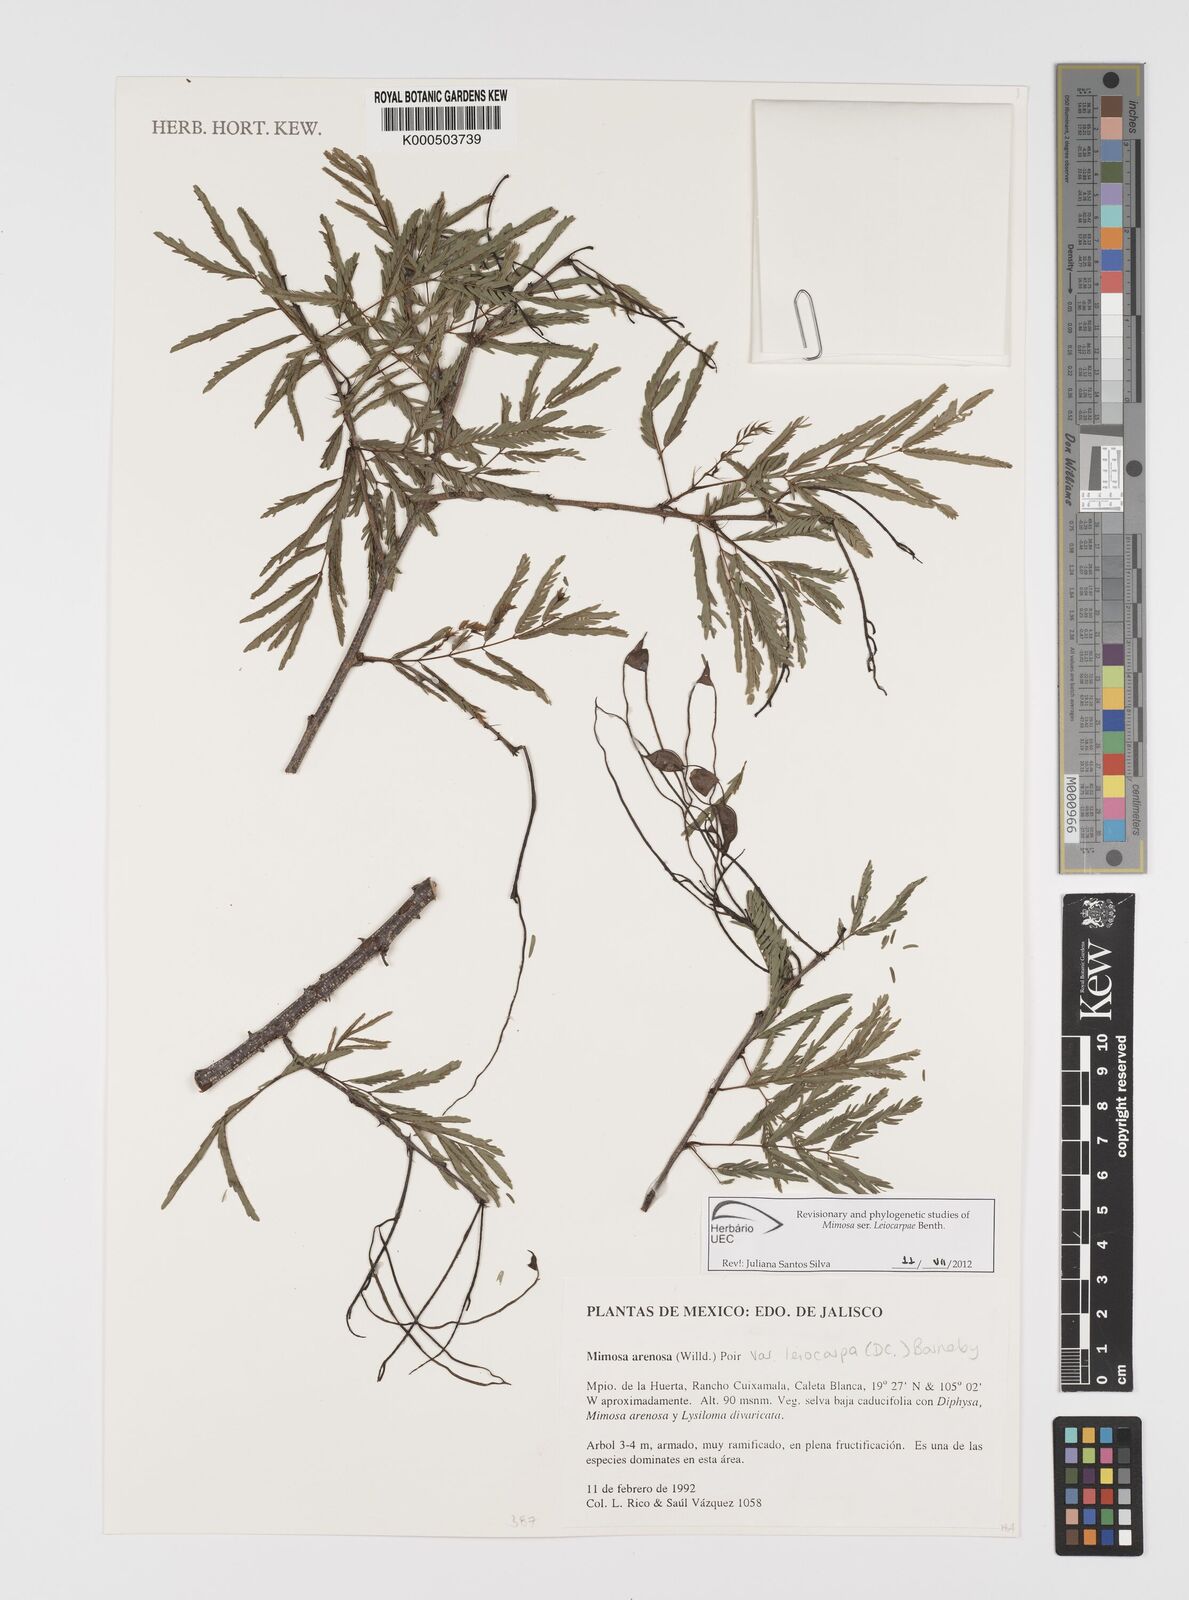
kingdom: Plantae
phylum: Tracheophyta
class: Magnoliopsida
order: Fabales
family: Fabaceae
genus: Mimosa
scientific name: Mimosa arenosa
